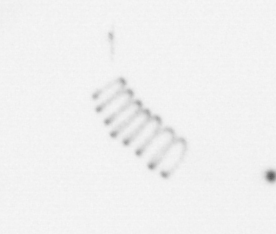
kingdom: Chromista
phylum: Ochrophyta
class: Bacillariophyceae
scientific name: Bacillariophyceae
